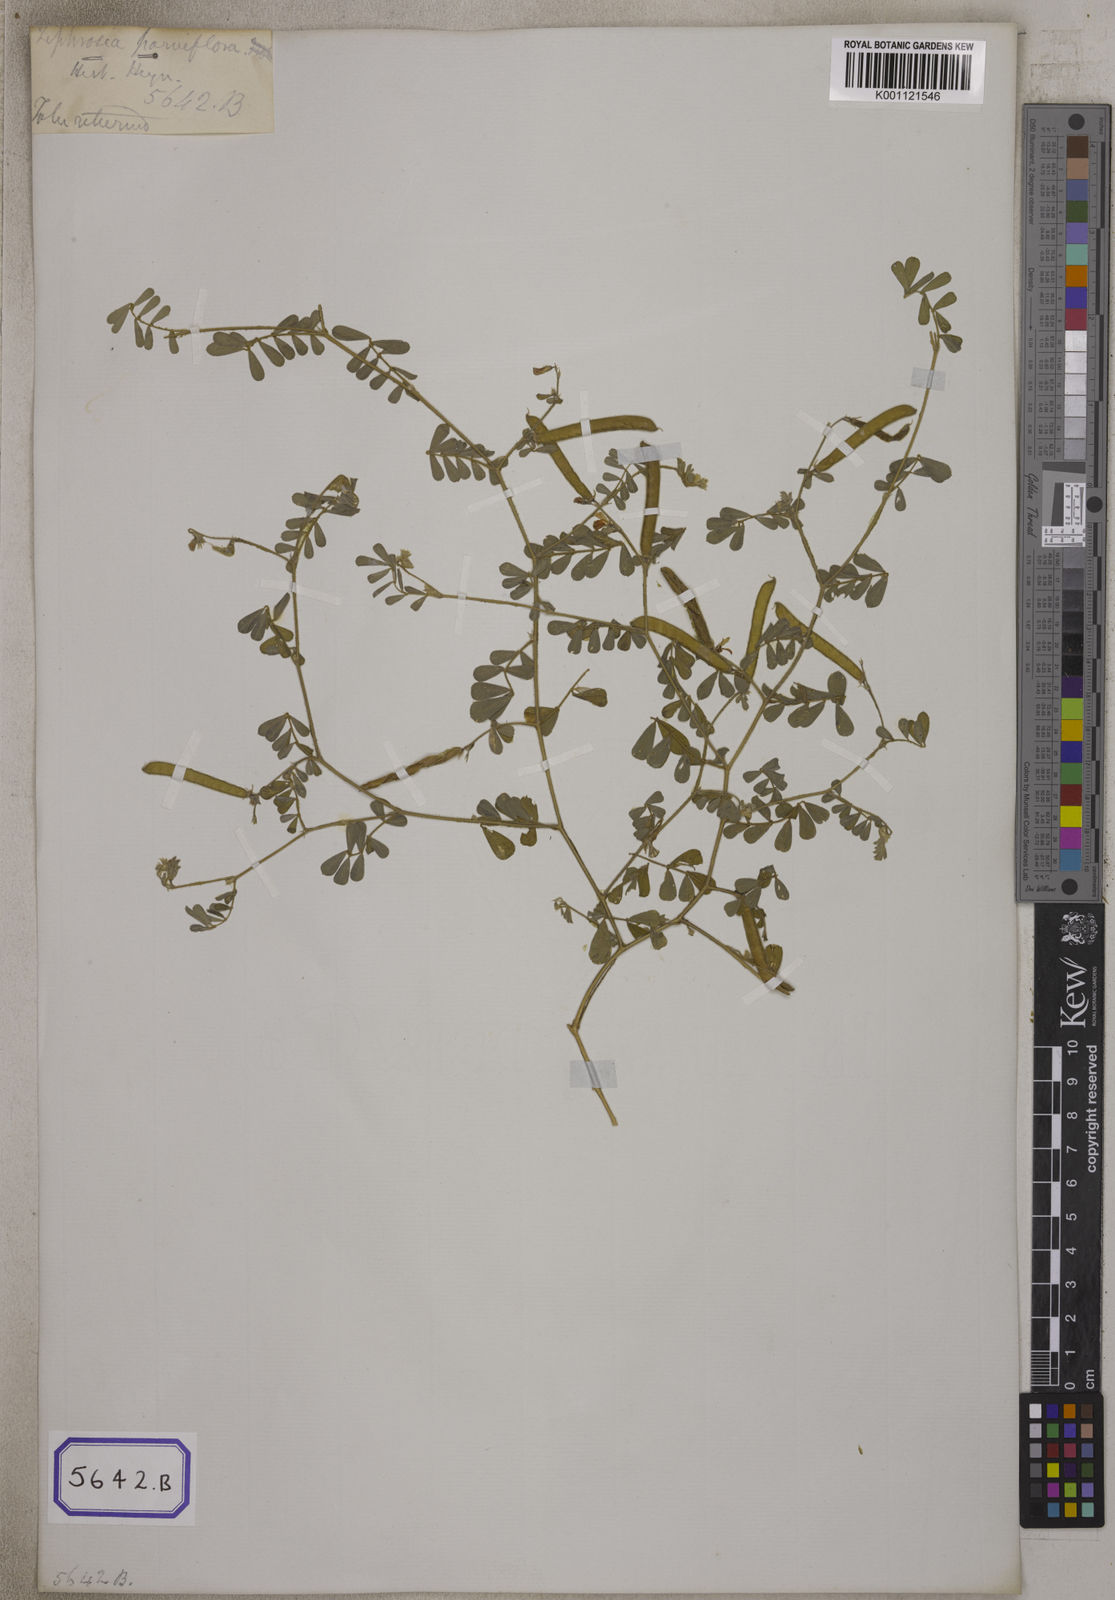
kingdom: Plantae
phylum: Tracheophyta
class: Magnoliopsida
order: Fabales
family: Fabaceae
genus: Tephrosia
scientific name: Tephrosia purpurea
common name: Fishpoison
